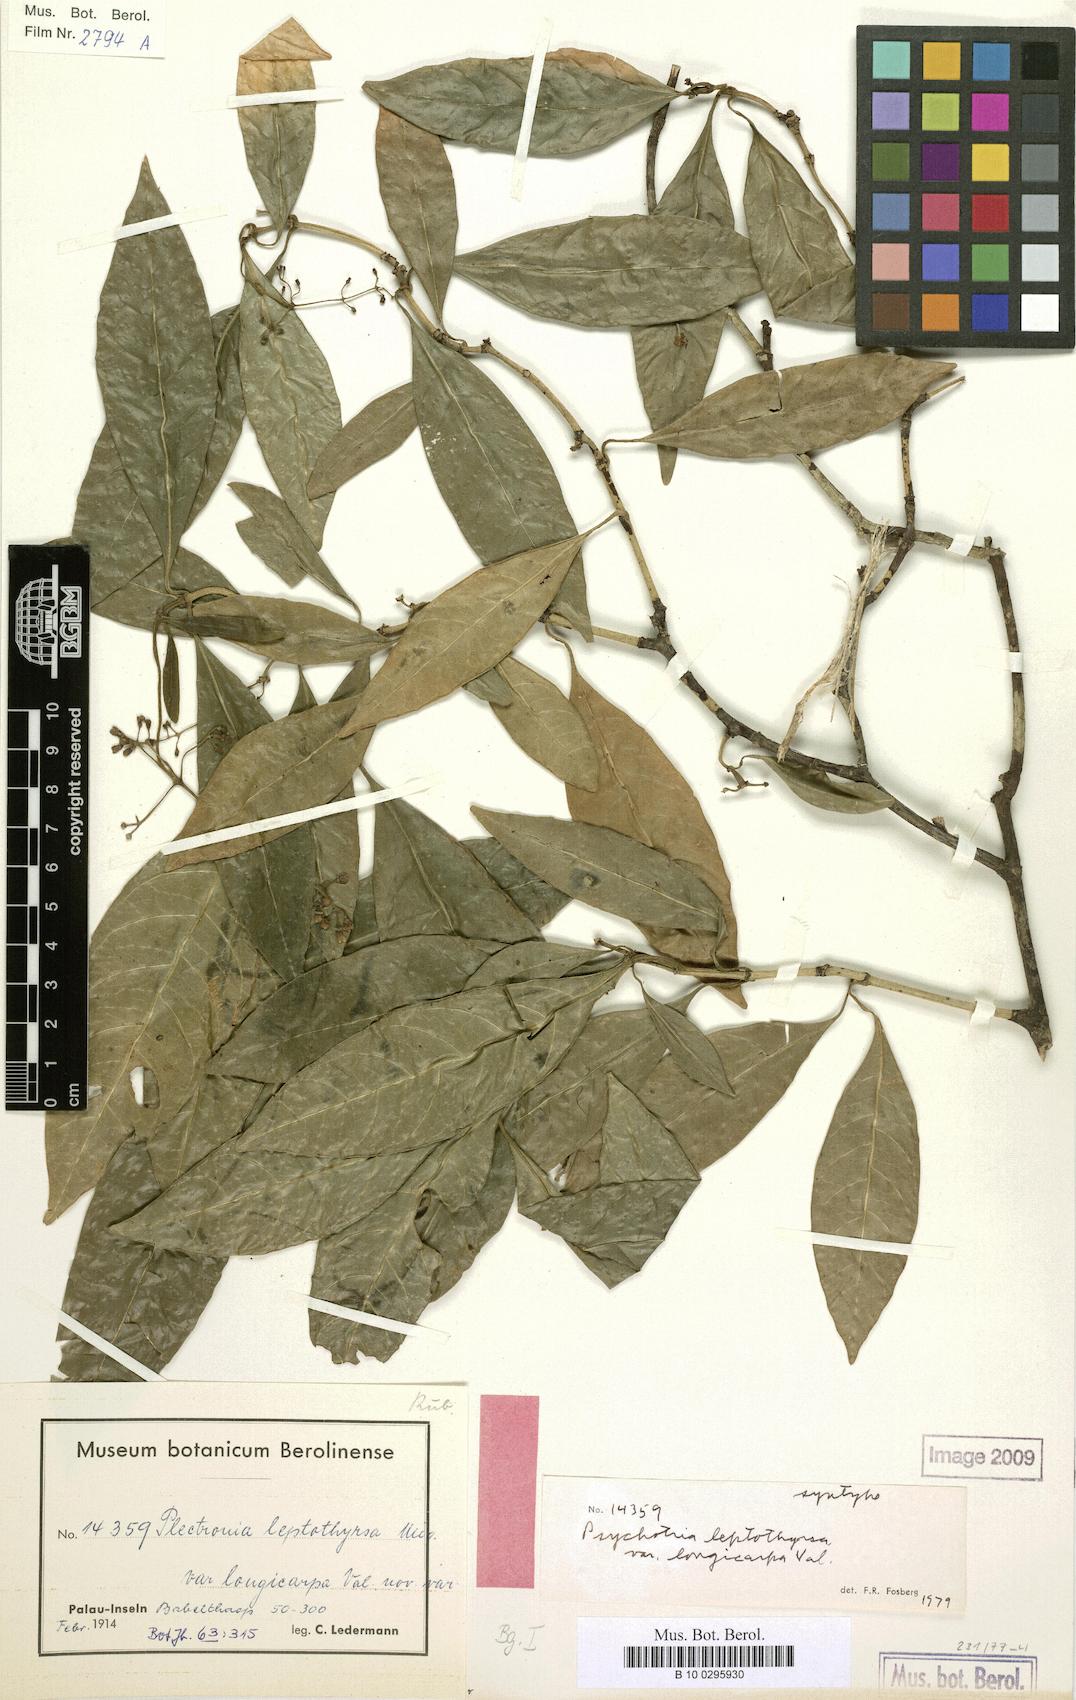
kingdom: Plantae
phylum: Tracheophyta
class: Magnoliopsida
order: Gentianales
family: Rubiaceae
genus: Eumachia
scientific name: Eumachia leptothyrsa
